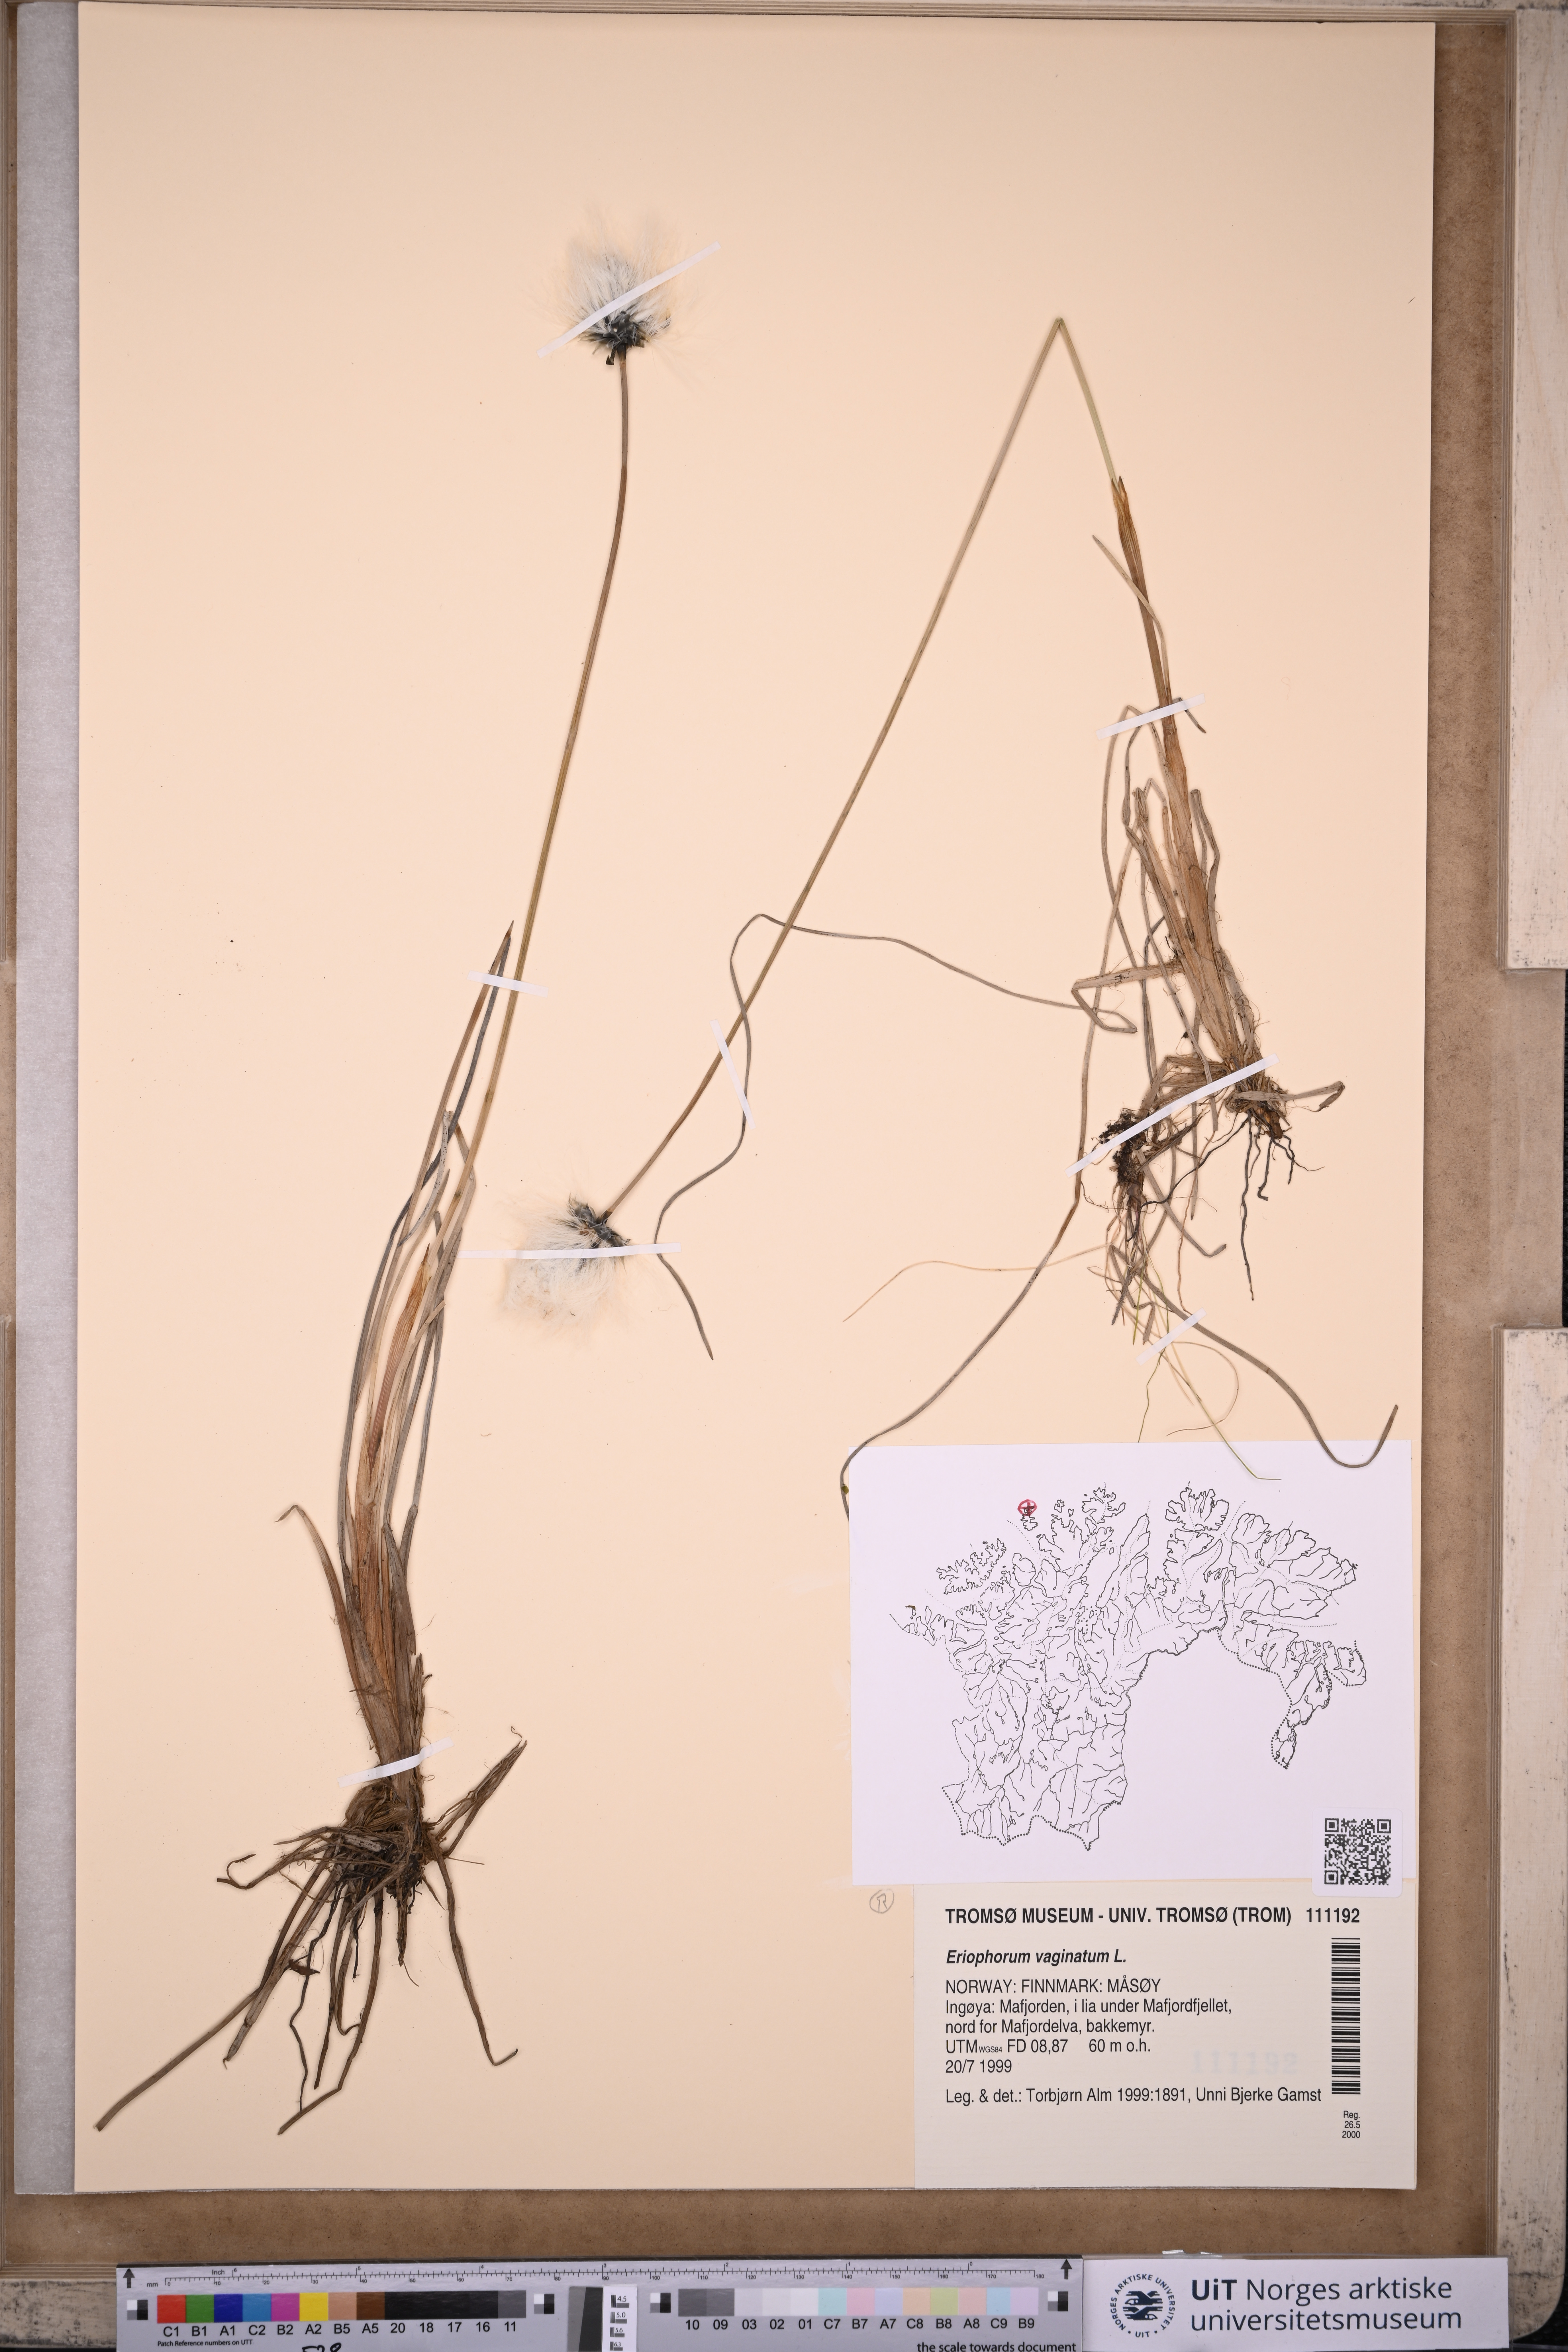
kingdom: Plantae
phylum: Tracheophyta
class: Liliopsida
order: Poales
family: Cyperaceae
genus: Eriophorum
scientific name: Eriophorum vaginatum
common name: Hare's-tail cottongrass
